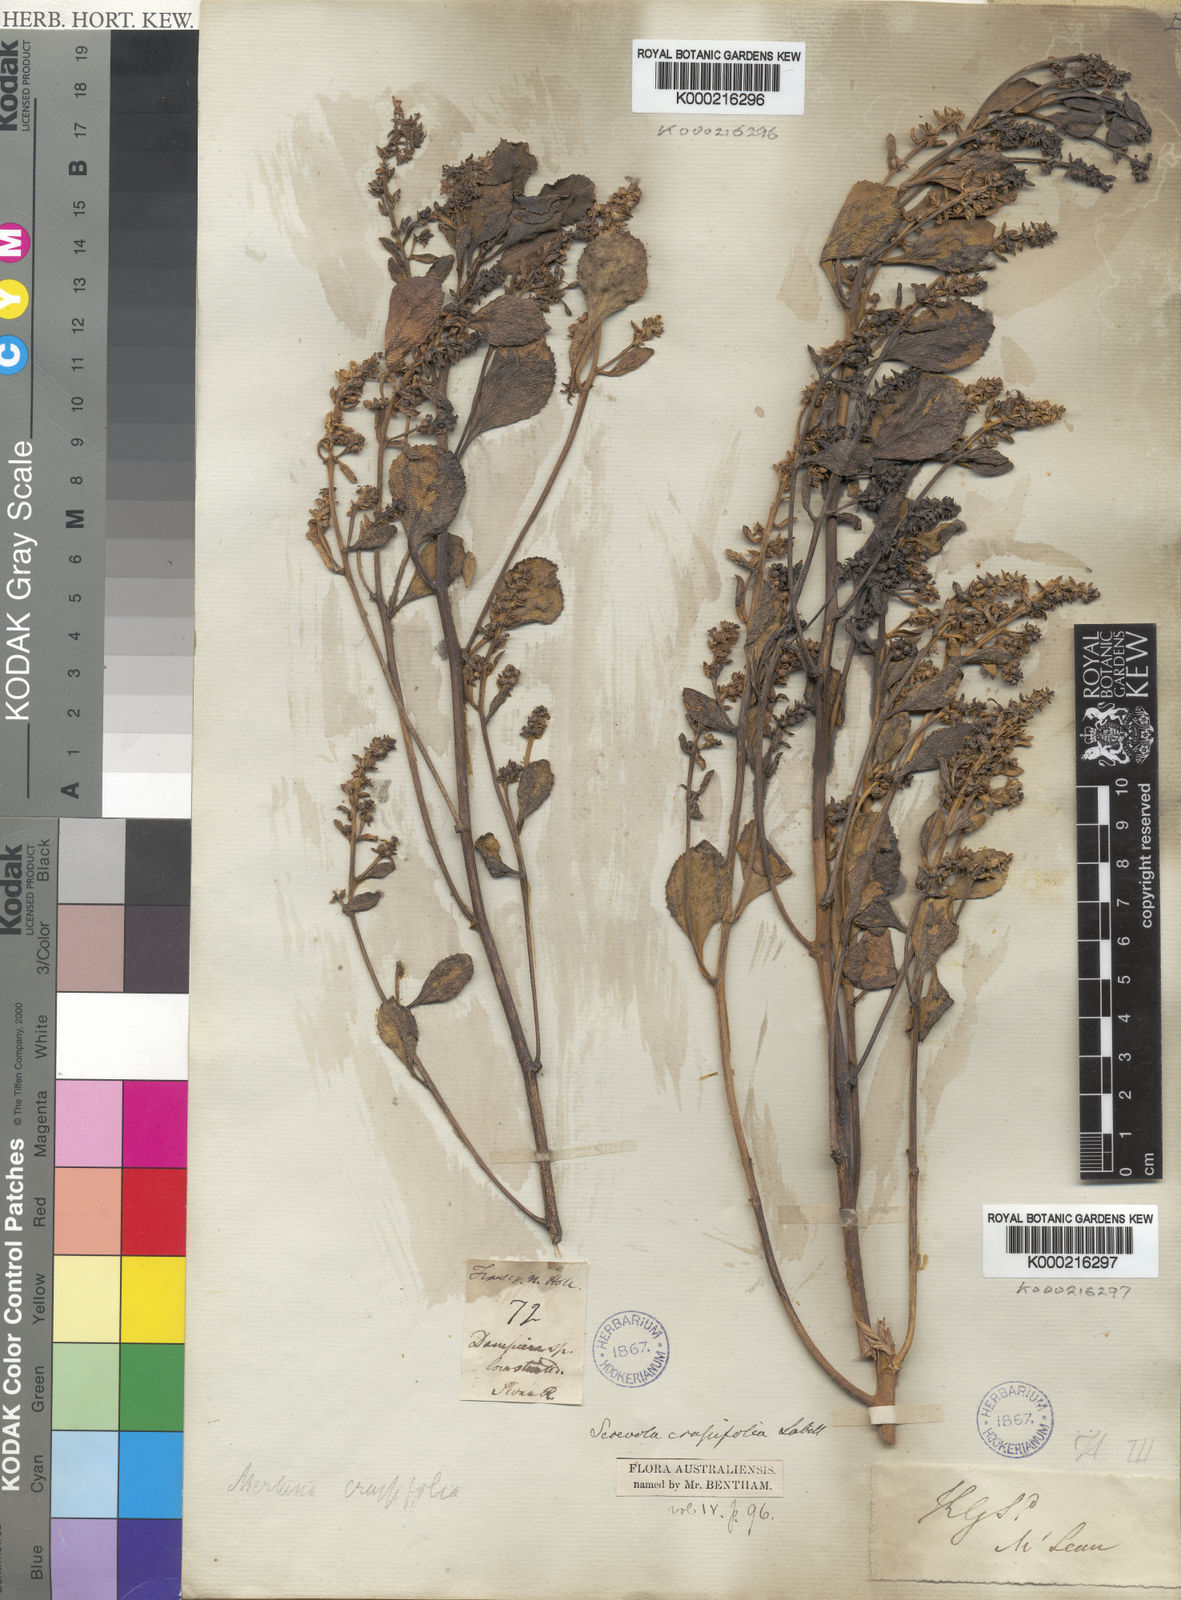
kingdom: Plantae
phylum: Tracheophyta
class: Magnoliopsida
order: Asterales
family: Goodeniaceae
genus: Scaevola
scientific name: Scaevola crassifolia
